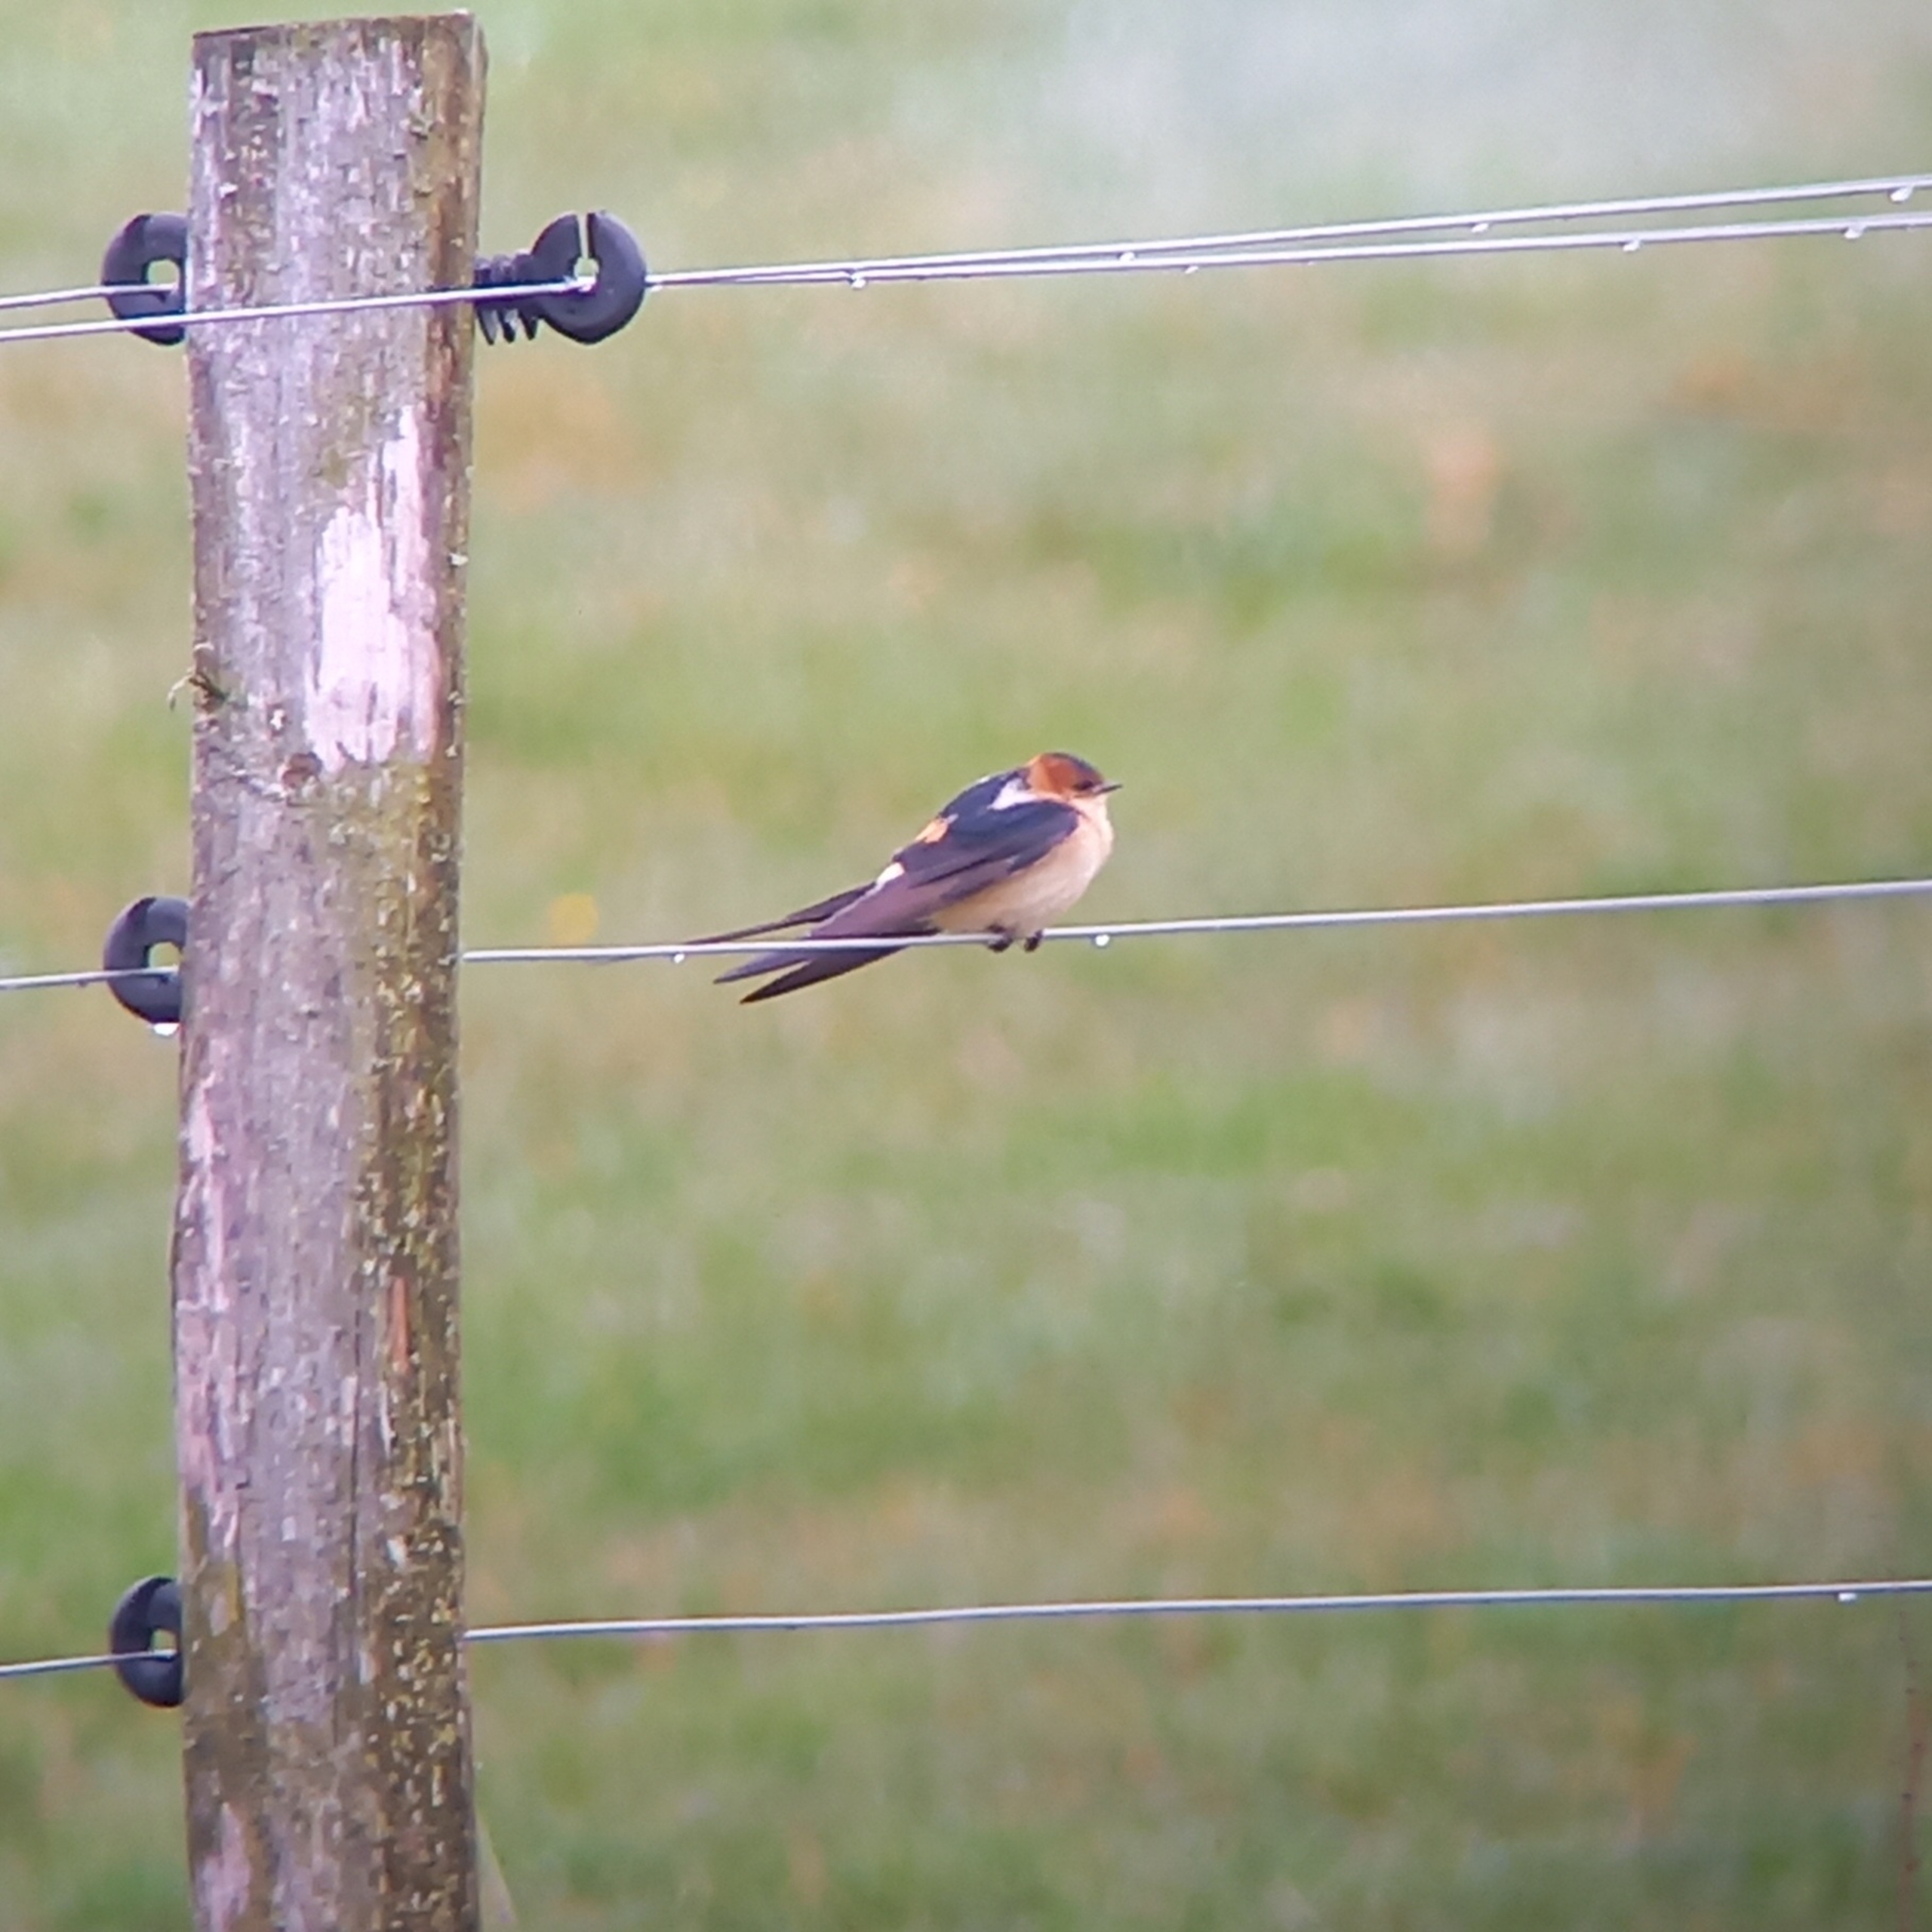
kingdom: Animalia
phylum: Chordata
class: Aves
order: Passeriformes
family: Hirundinidae
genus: Cecropis
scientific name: Cecropis daurica
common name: Rødrygget svale
